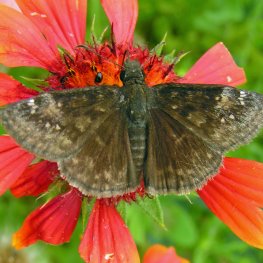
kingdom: Animalia
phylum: Arthropoda
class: Insecta
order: Lepidoptera
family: Hesperiidae
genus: Gesta
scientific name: Gesta
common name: Horace's Duskywing
